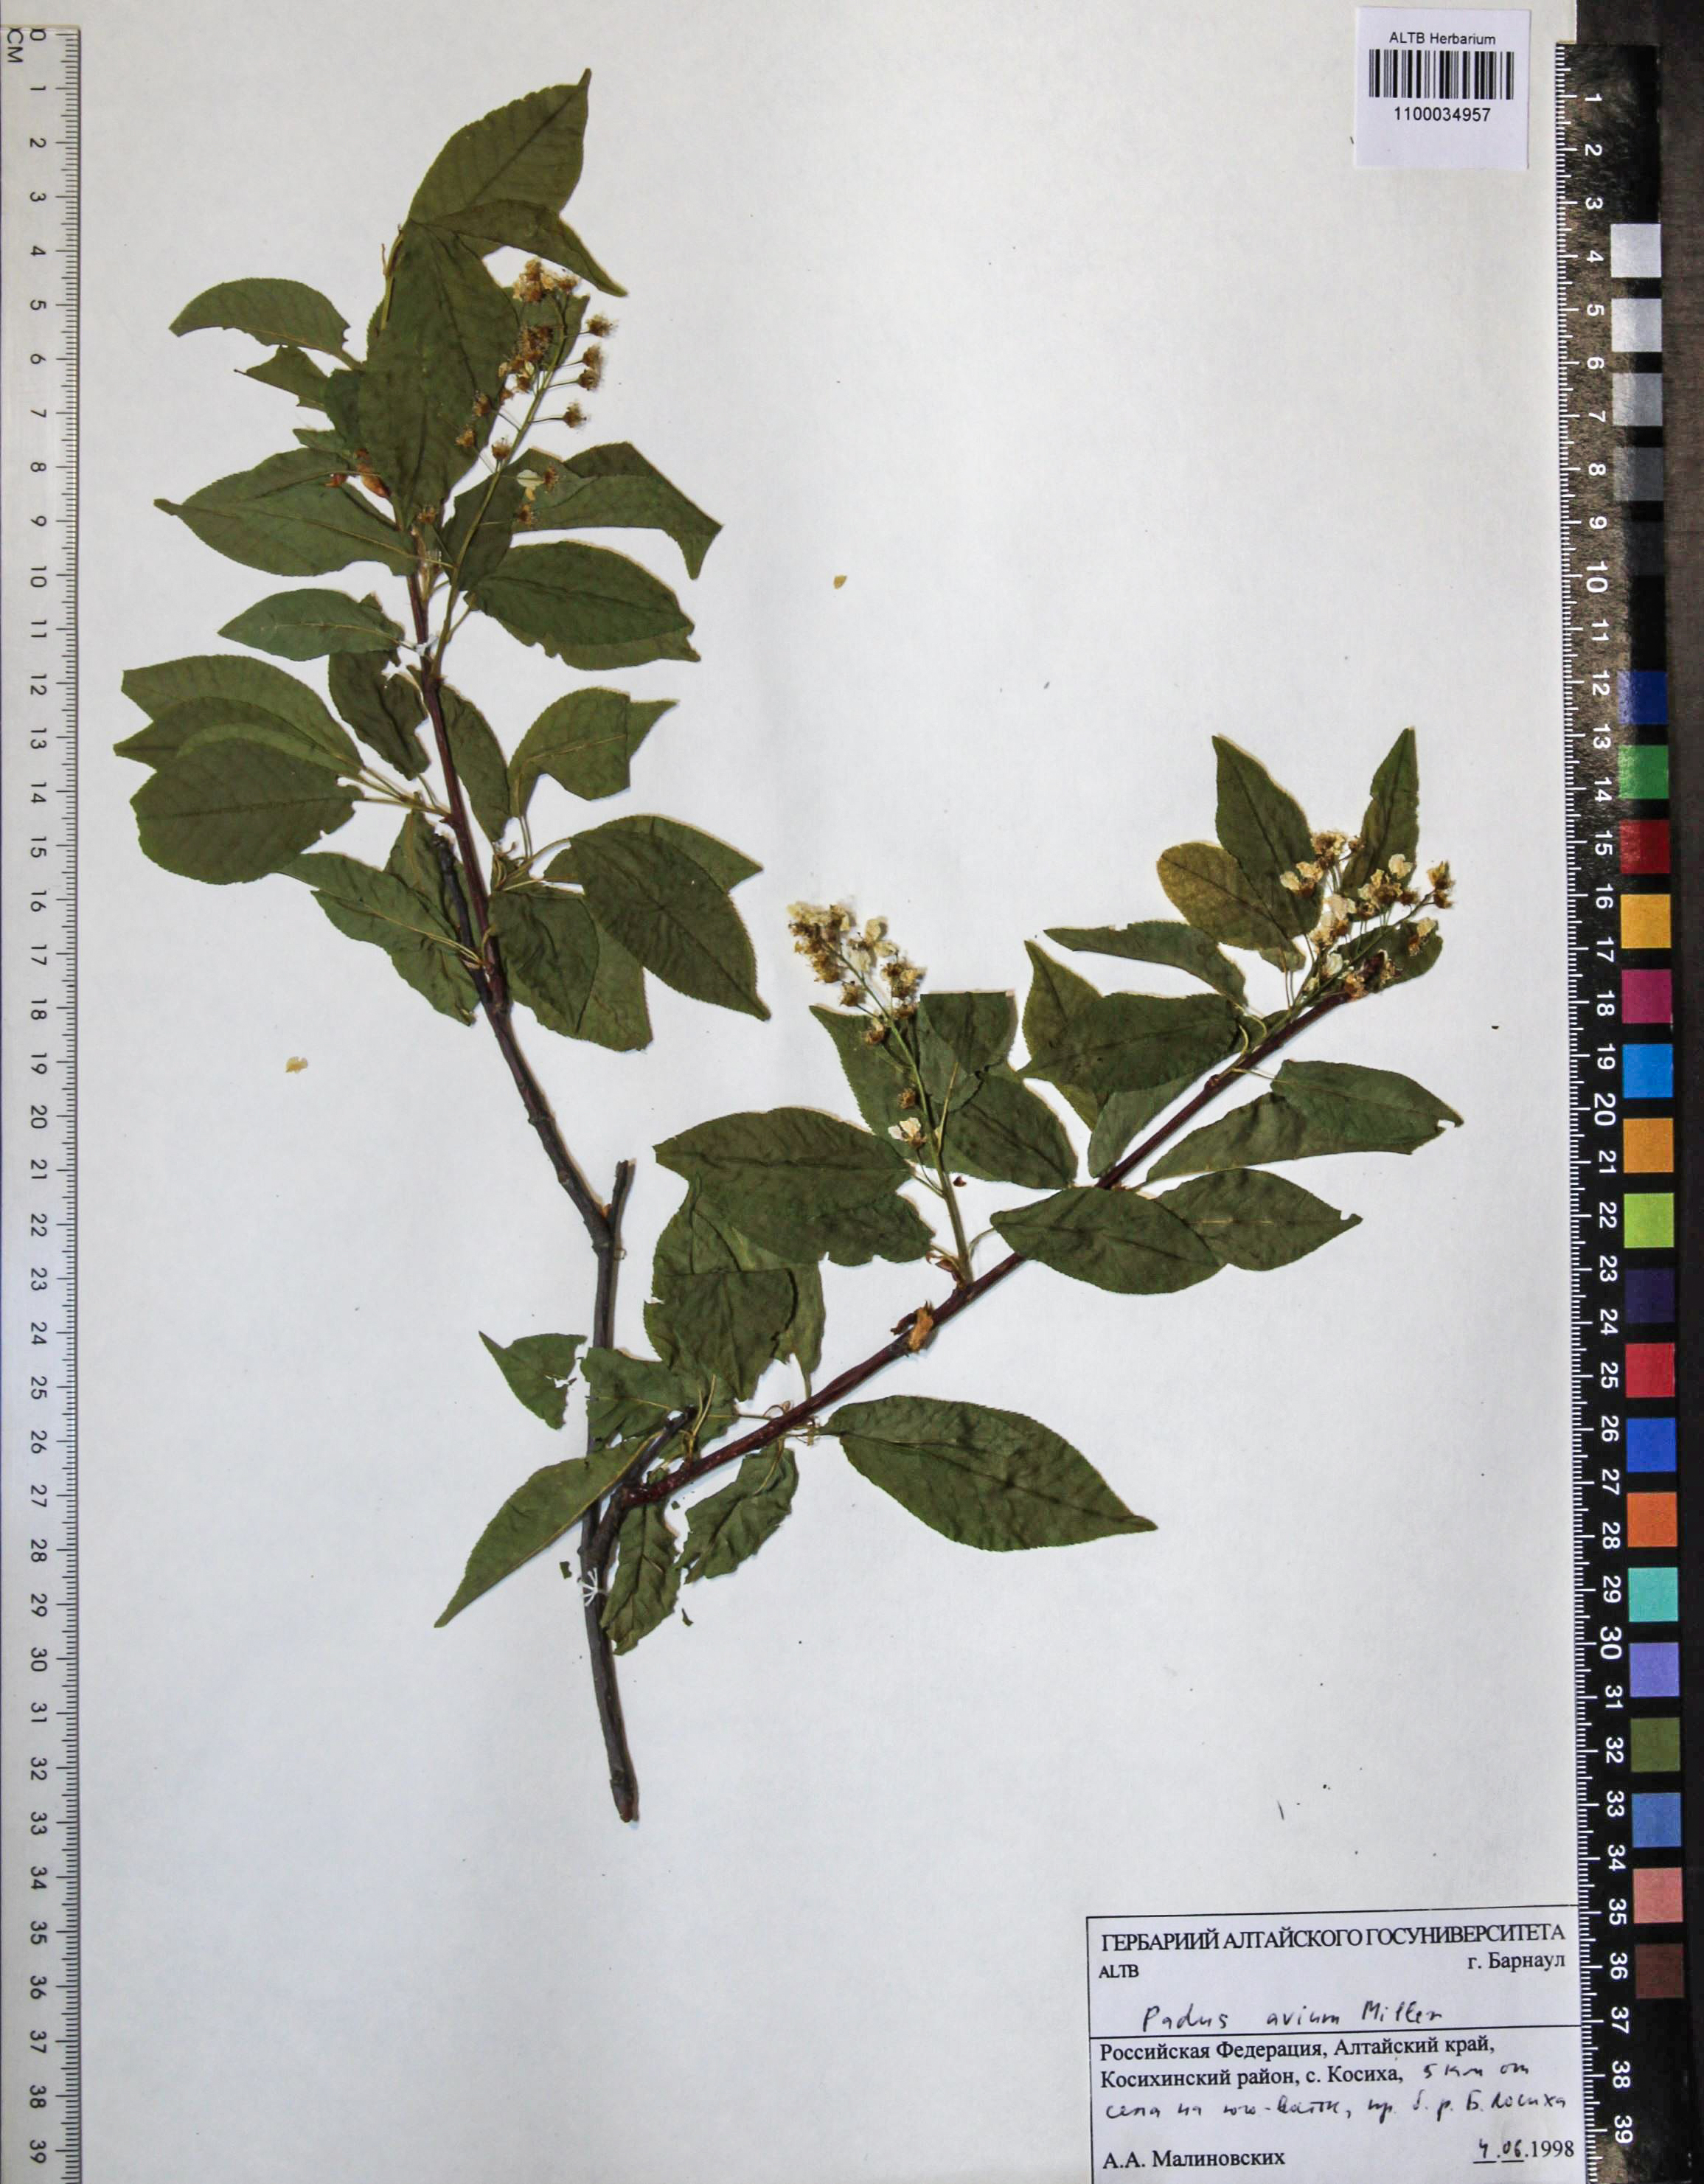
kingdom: Plantae
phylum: Tracheophyta
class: Magnoliopsida
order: Rosales
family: Rosaceae
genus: Prunus
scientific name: Prunus padus
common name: Bird cherry
